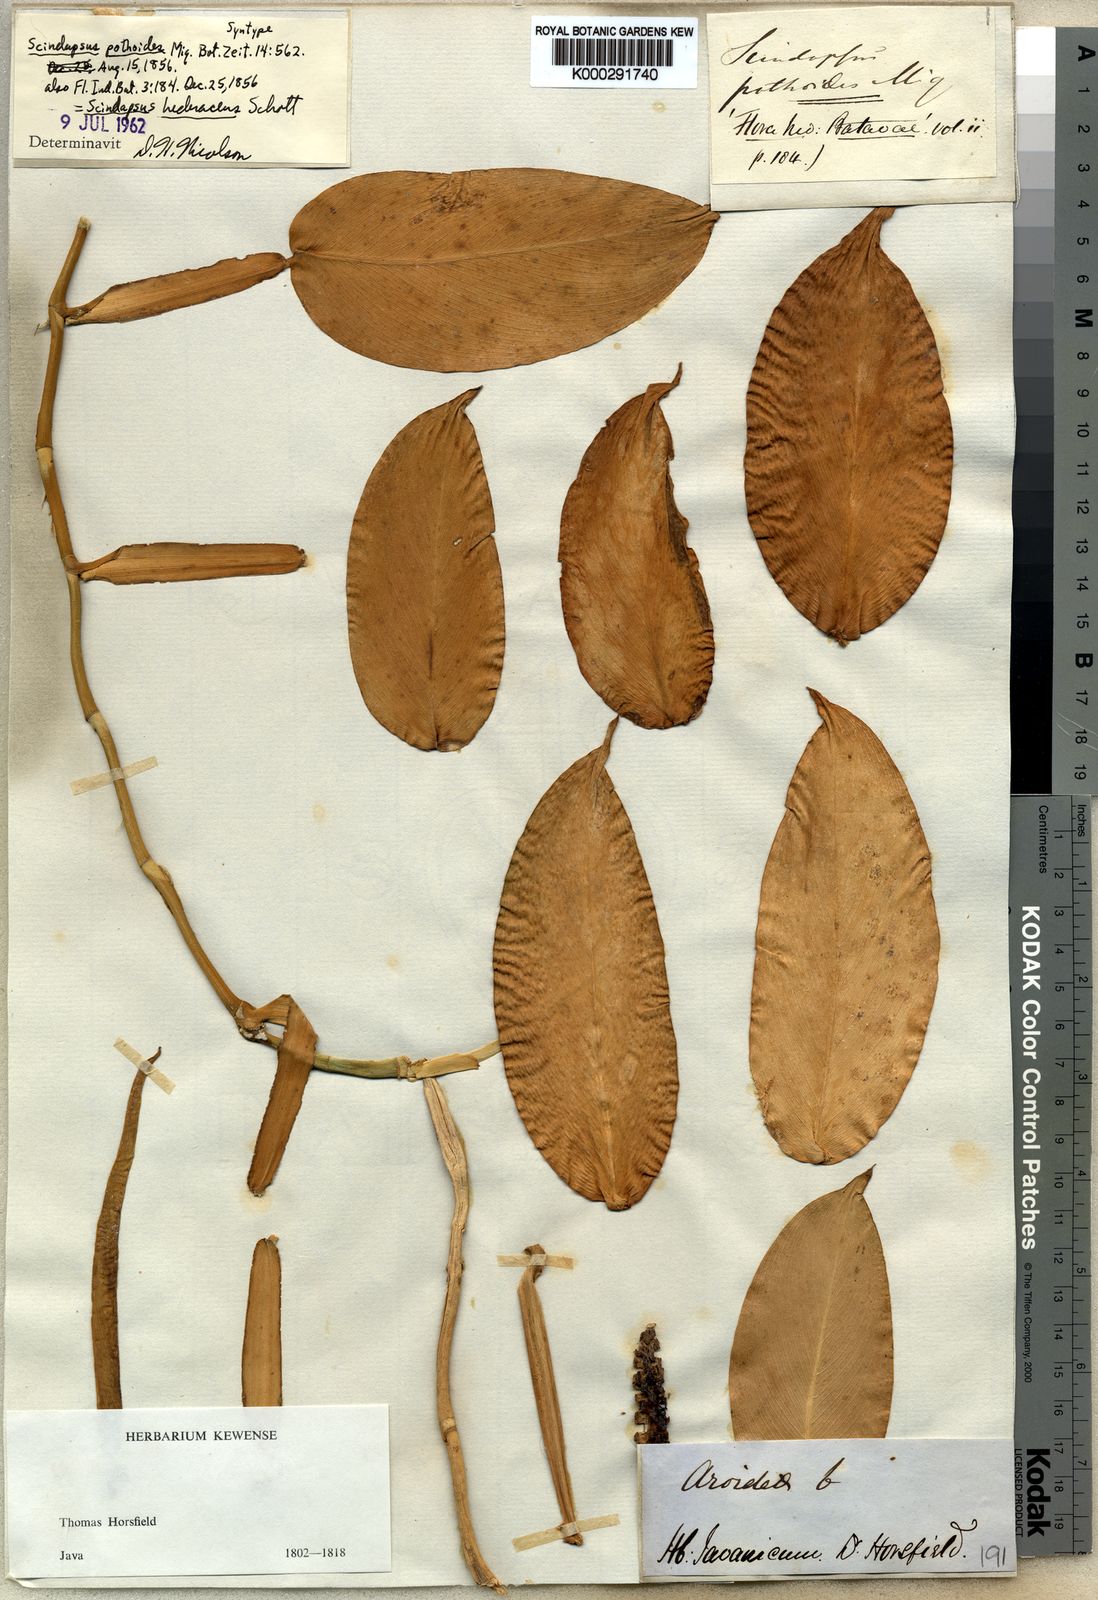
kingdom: Plantae
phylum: Tracheophyta
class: Liliopsida
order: Alismatales
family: Araceae
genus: Scindapsus
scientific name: Scindapsus
